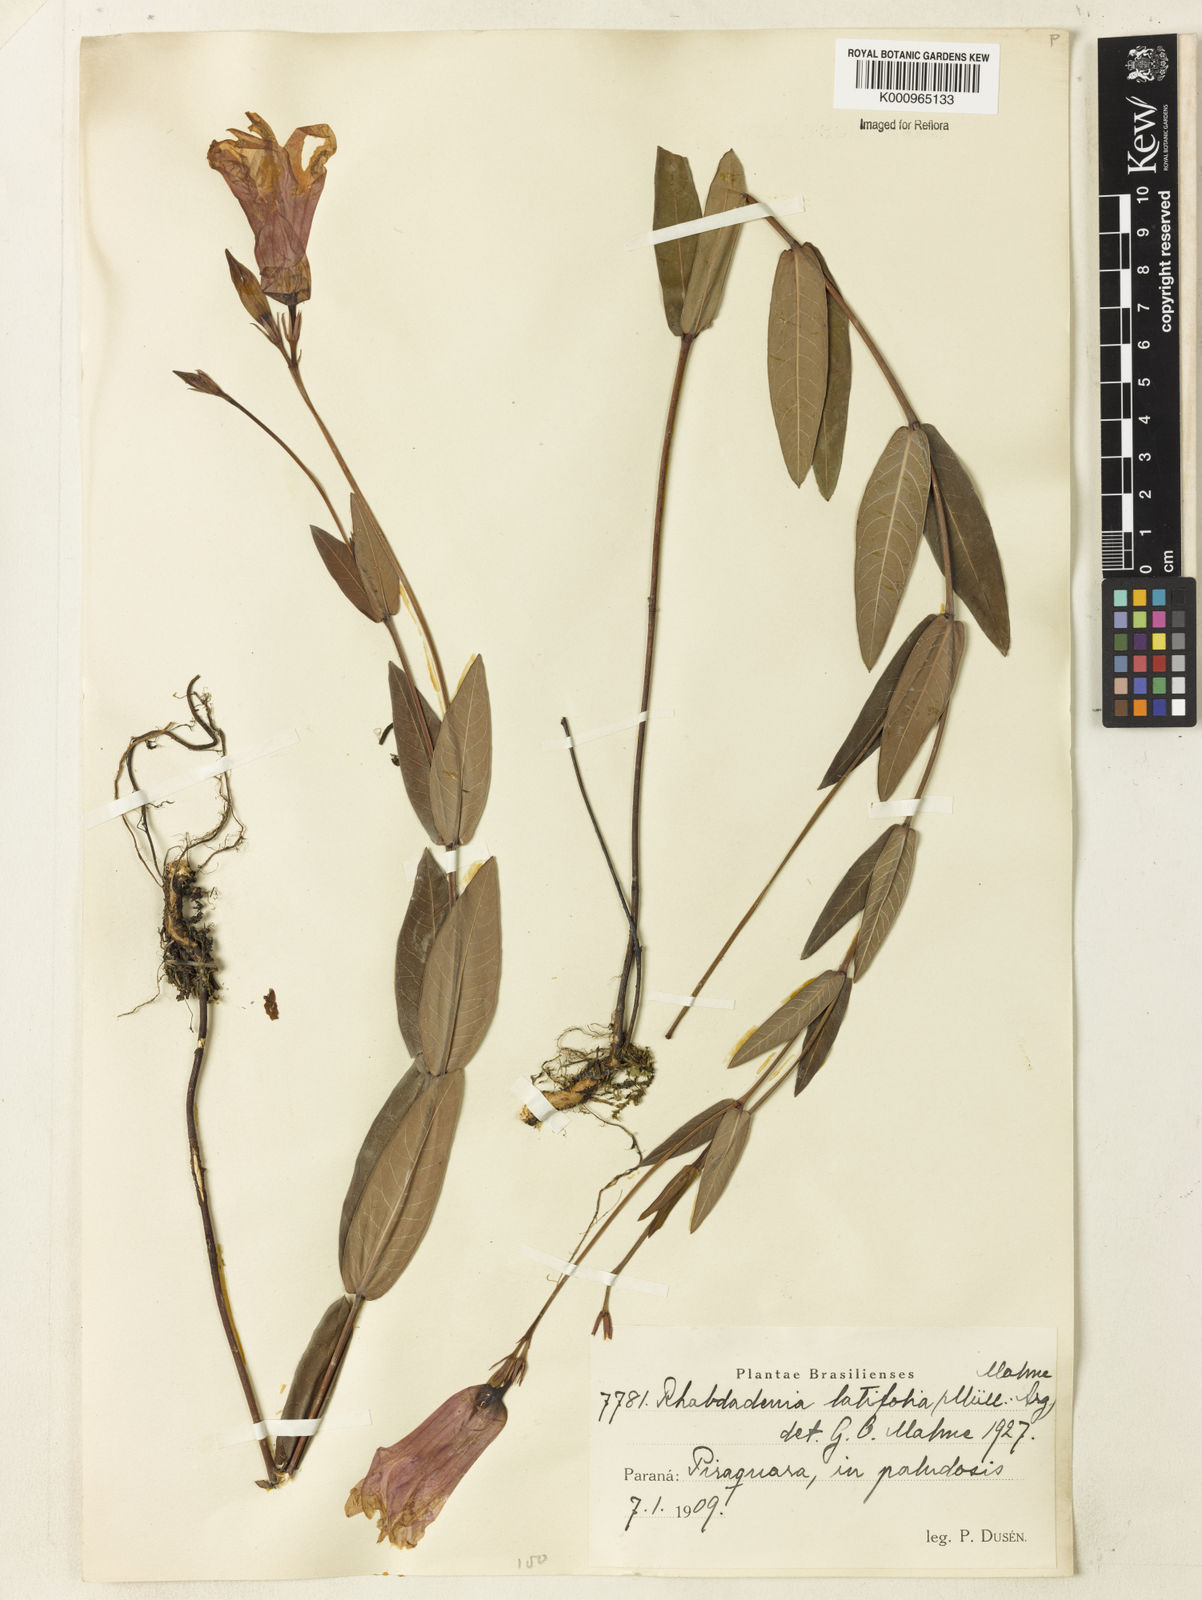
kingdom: Plantae
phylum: Tracheophyta
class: Magnoliopsida
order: Gentianales
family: Apocynaceae
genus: Rhabdadenia
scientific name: Rhabdadenia madida
